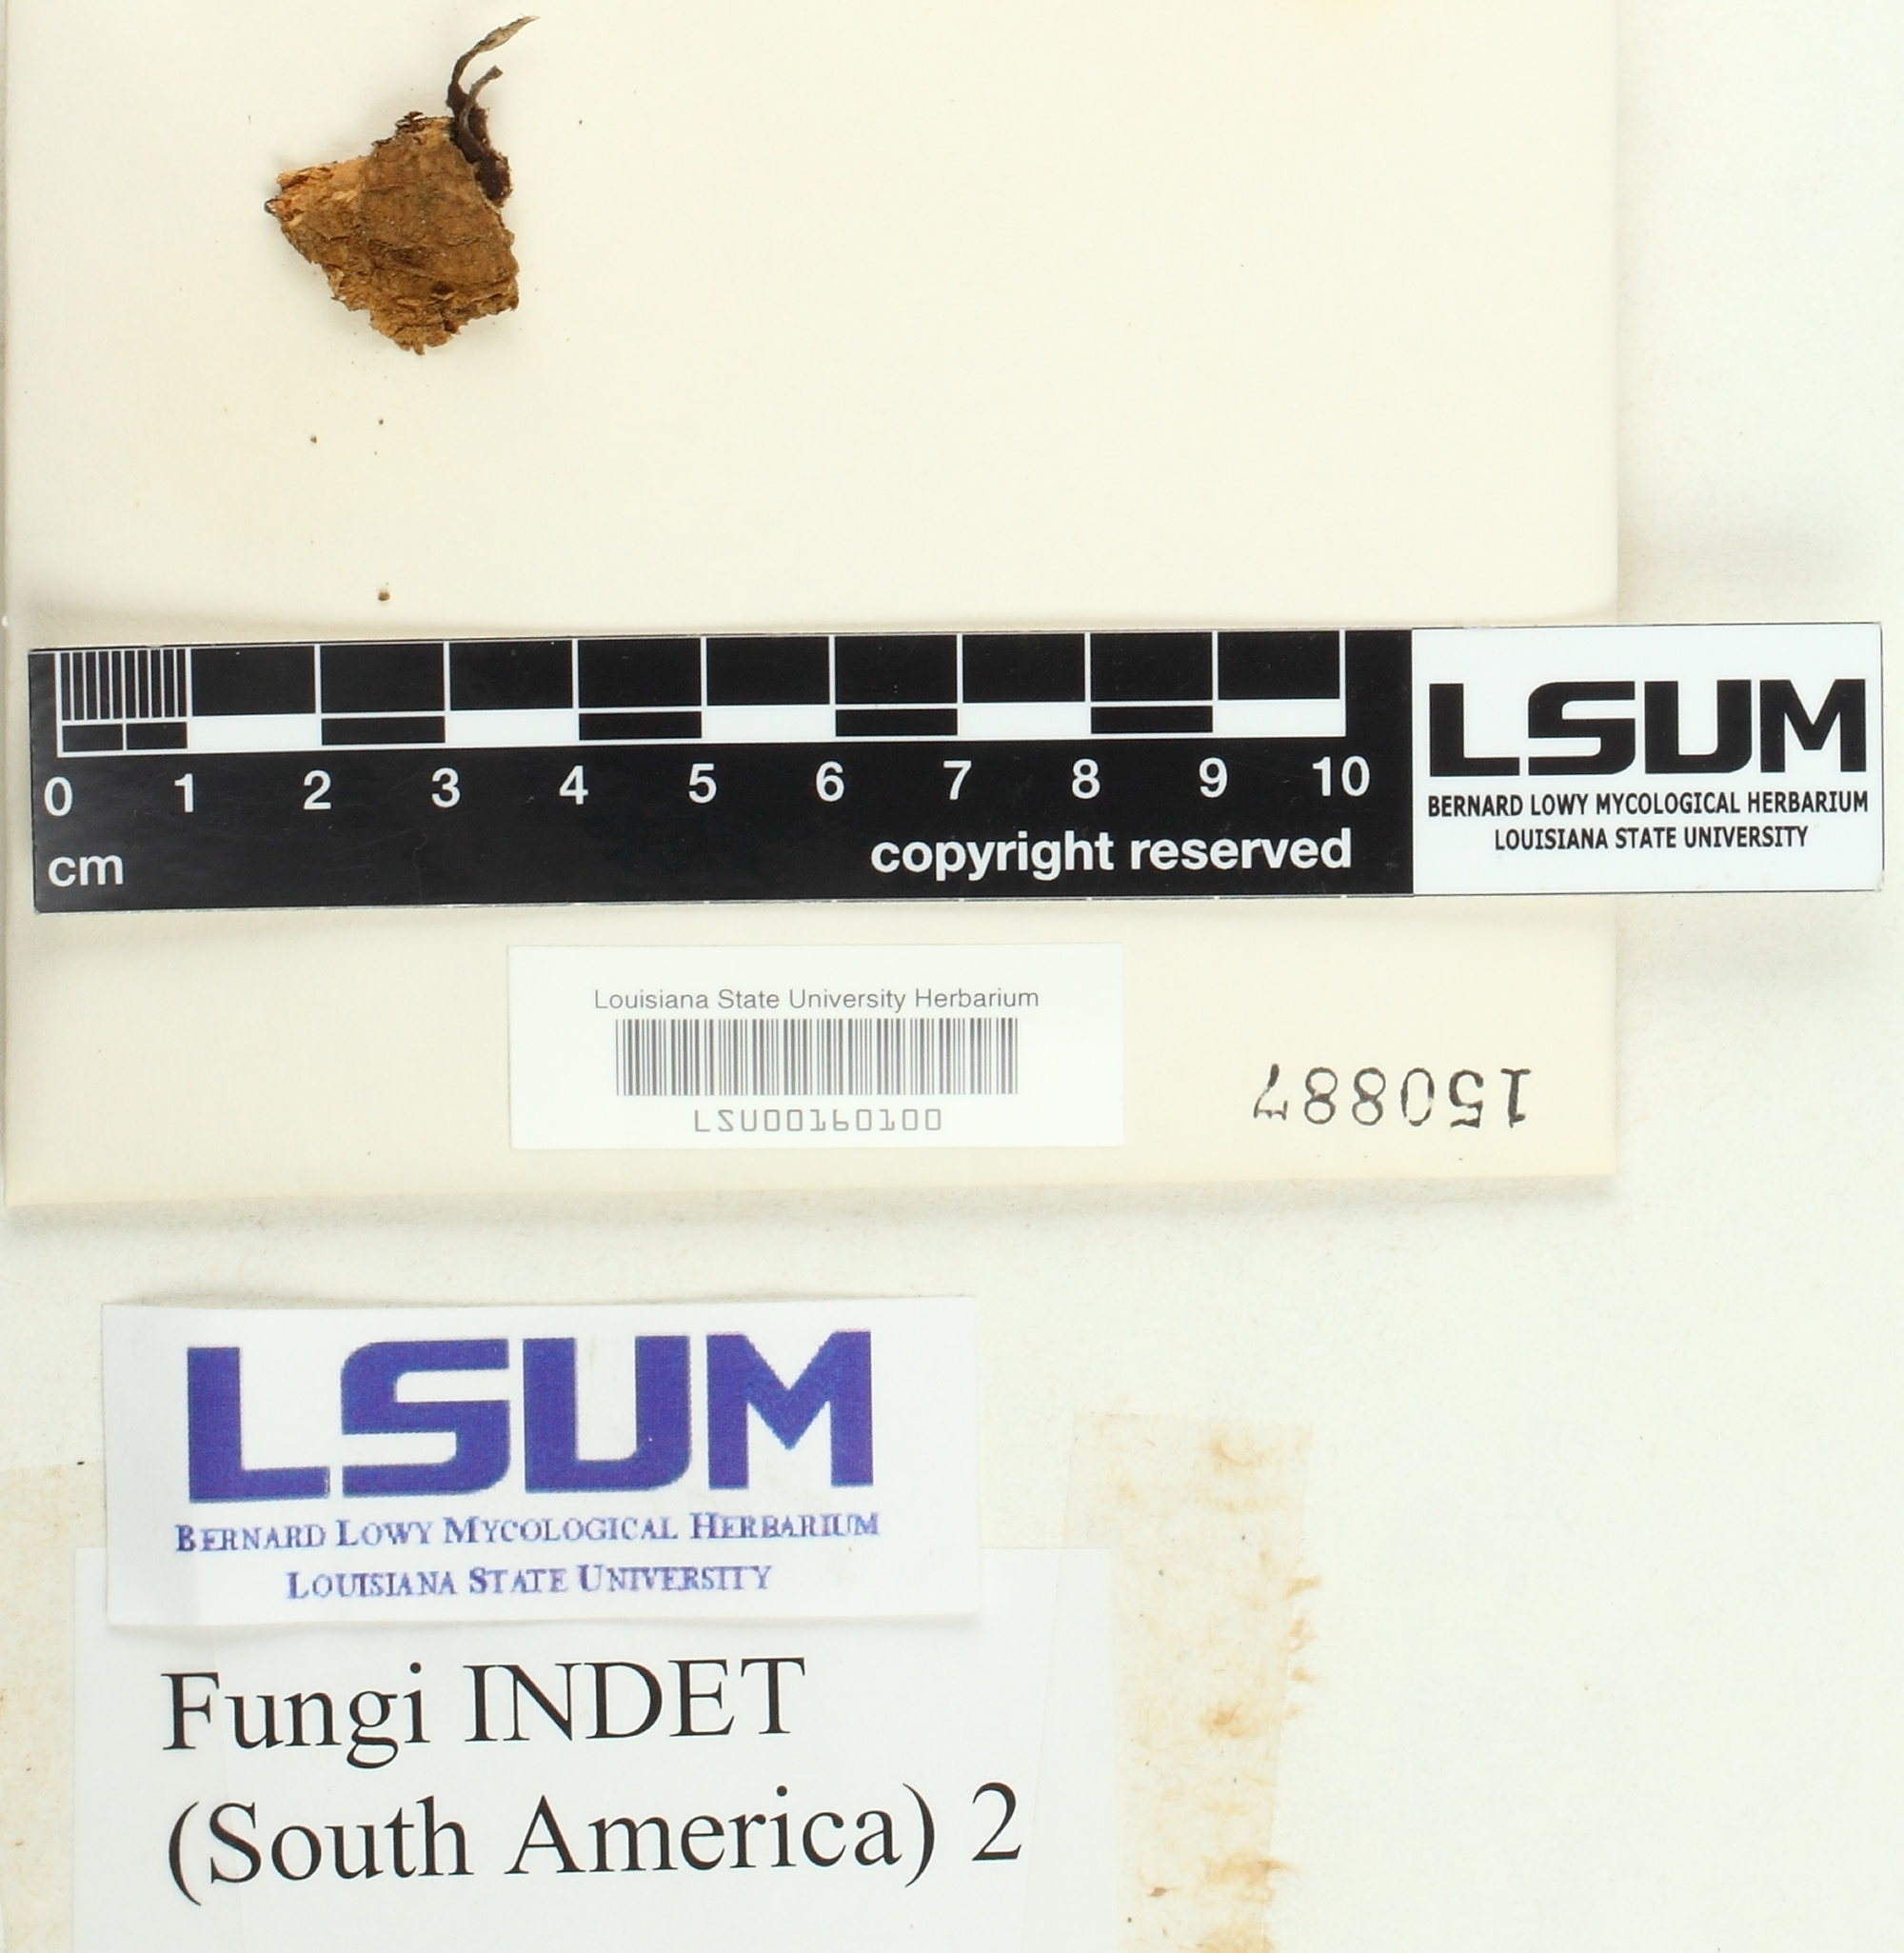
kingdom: Fungi
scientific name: Fungi
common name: Fungi
